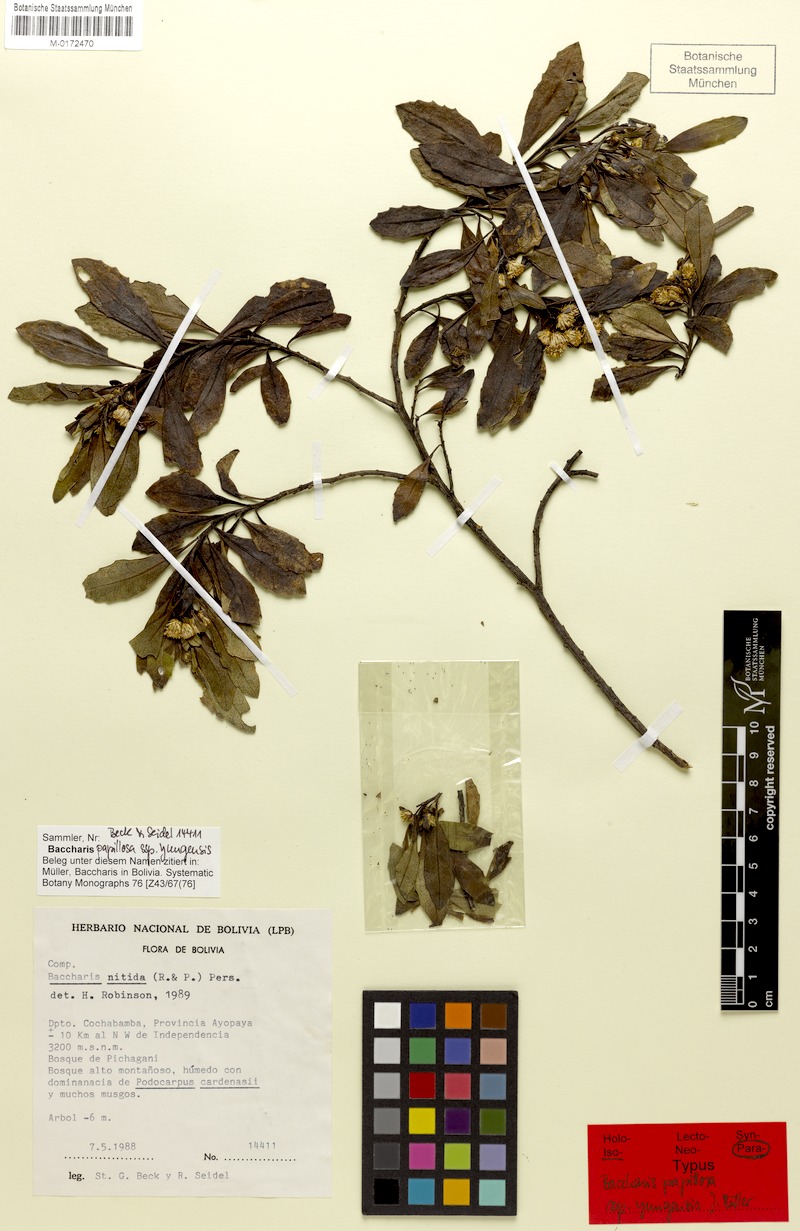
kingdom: Plantae
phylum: Tracheophyta
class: Magnoliopsida
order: Asterales
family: Asteraceae
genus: Baccharis
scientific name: Baccharis yungensis
